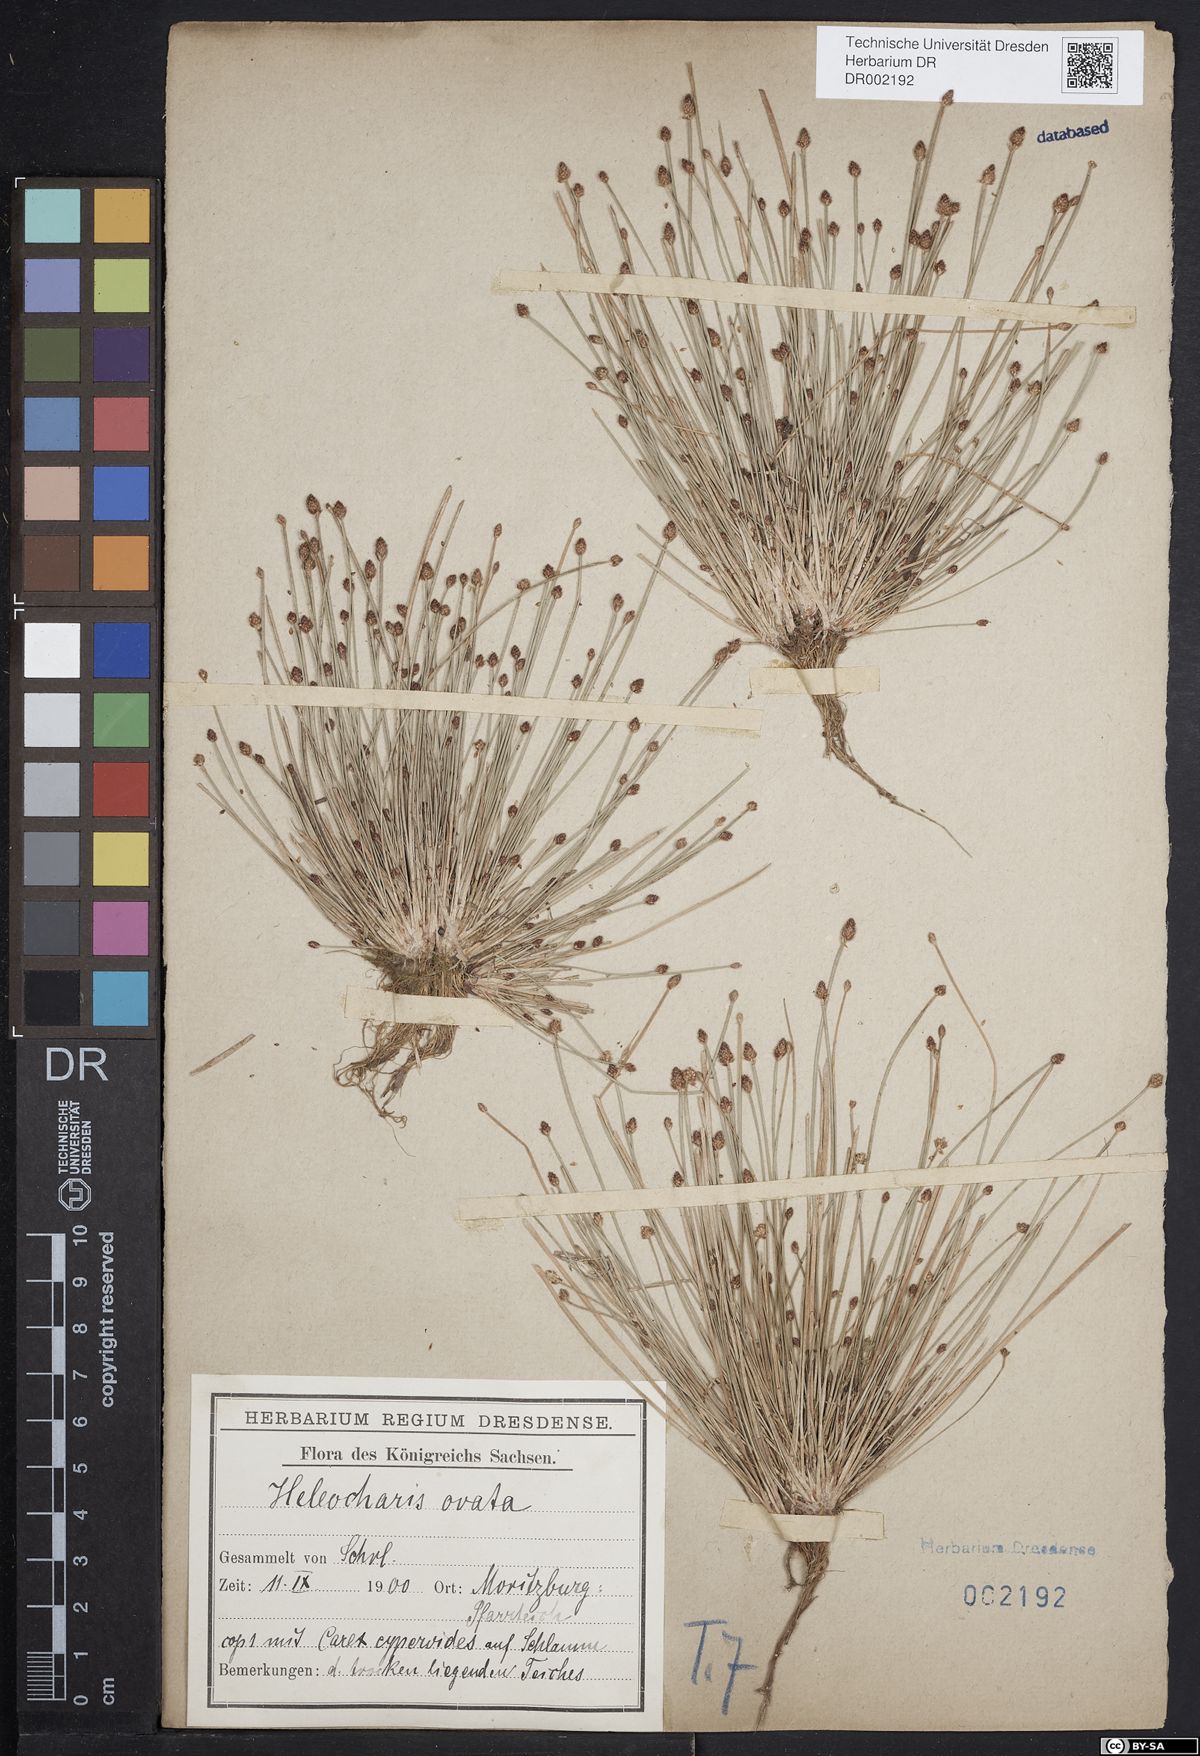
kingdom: Plantae
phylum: Tracheophyta
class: Liliopsida
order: Poales
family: Cyperaceae
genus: Eleocharis
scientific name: Eleocharis ovata
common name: Oval spike-rush
